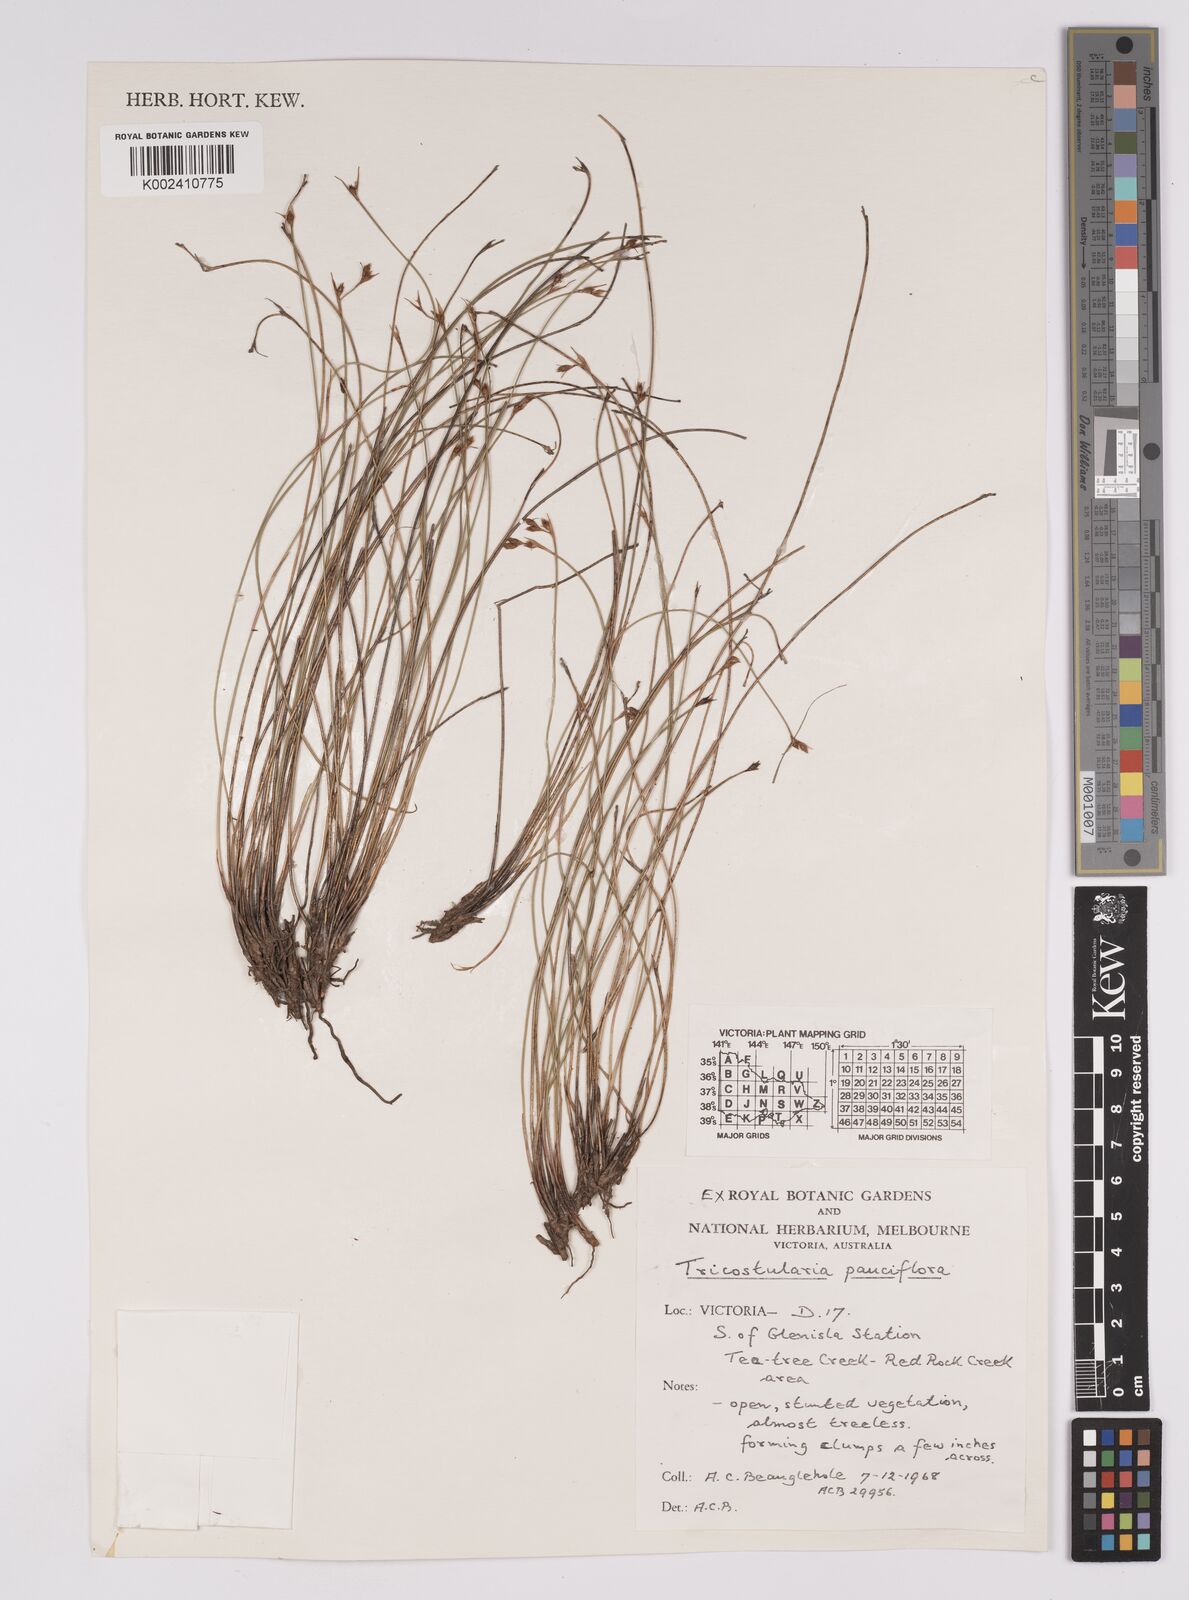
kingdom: Plantae
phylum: Tracheophyta
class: Liliopsida
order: Poales
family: Cyperaceae
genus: Tricostularia
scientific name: Tricostularia pauciflora
